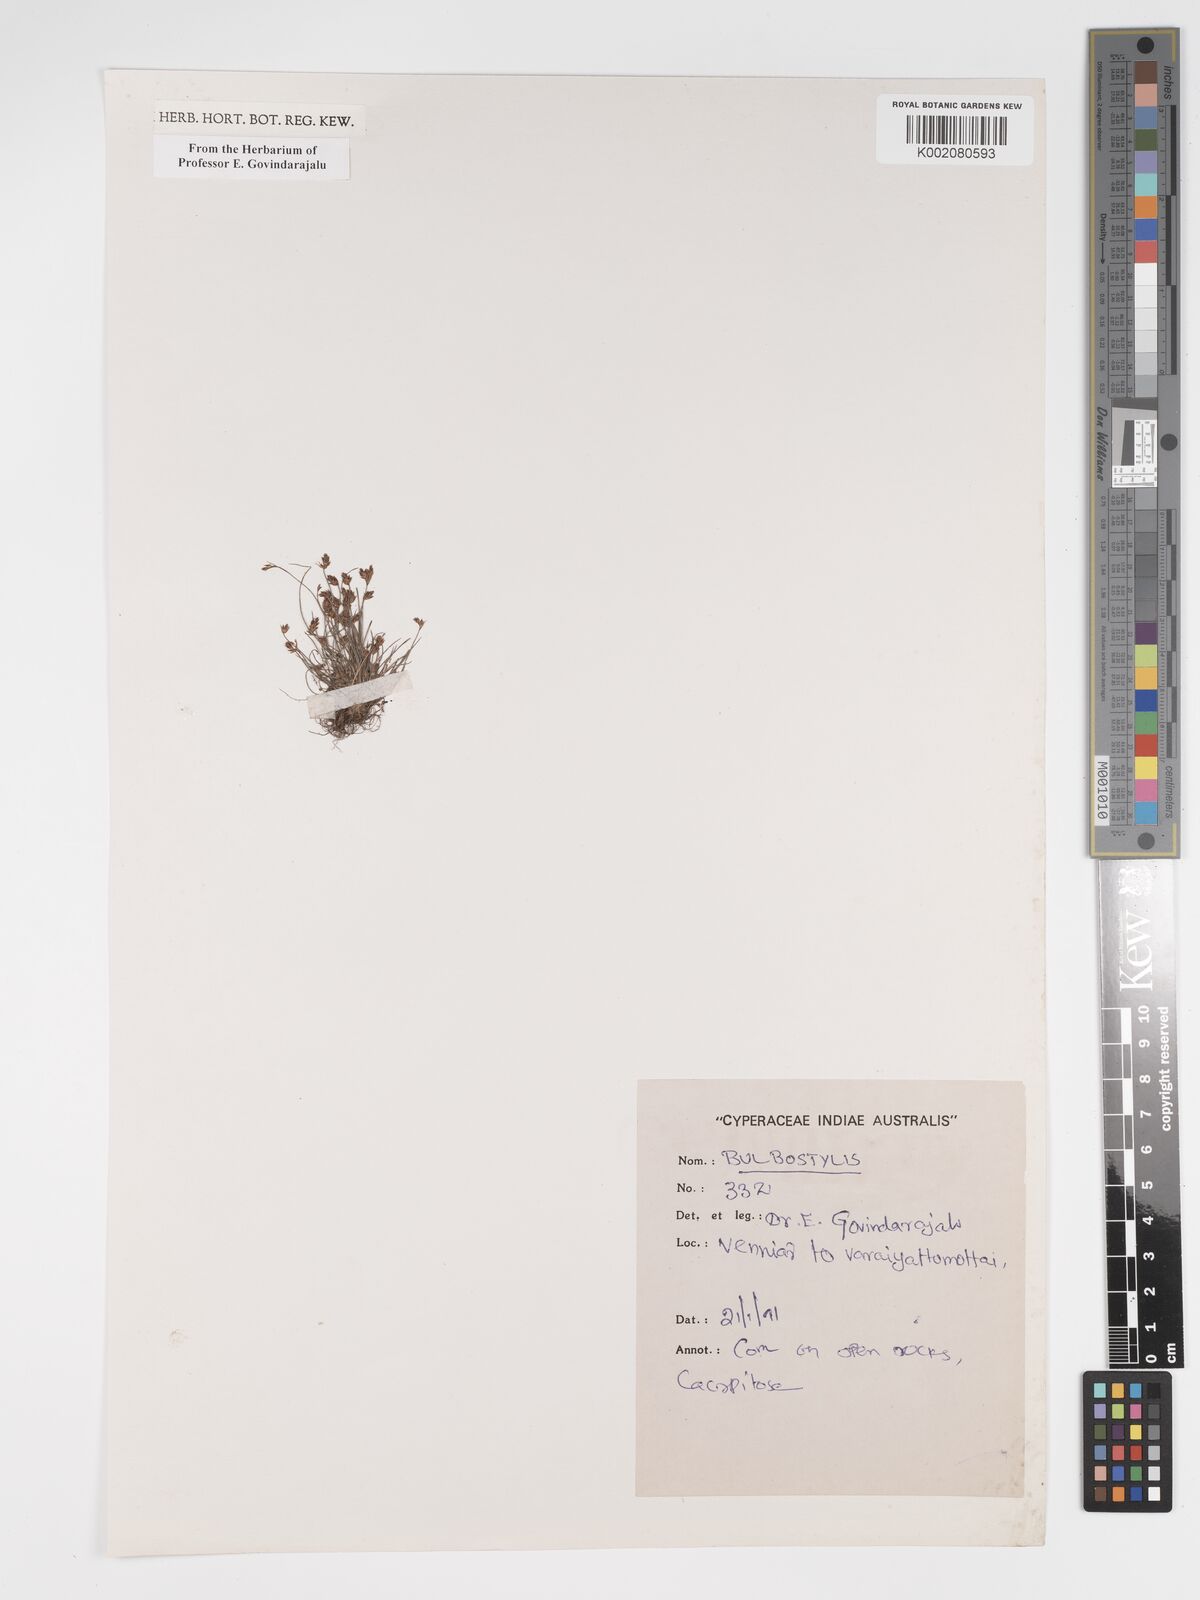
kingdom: Plantae
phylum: Tracheophyta
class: Liliopsida
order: Poales
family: Cyperaceae
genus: Bulbostylis
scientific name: Bulbostylis
